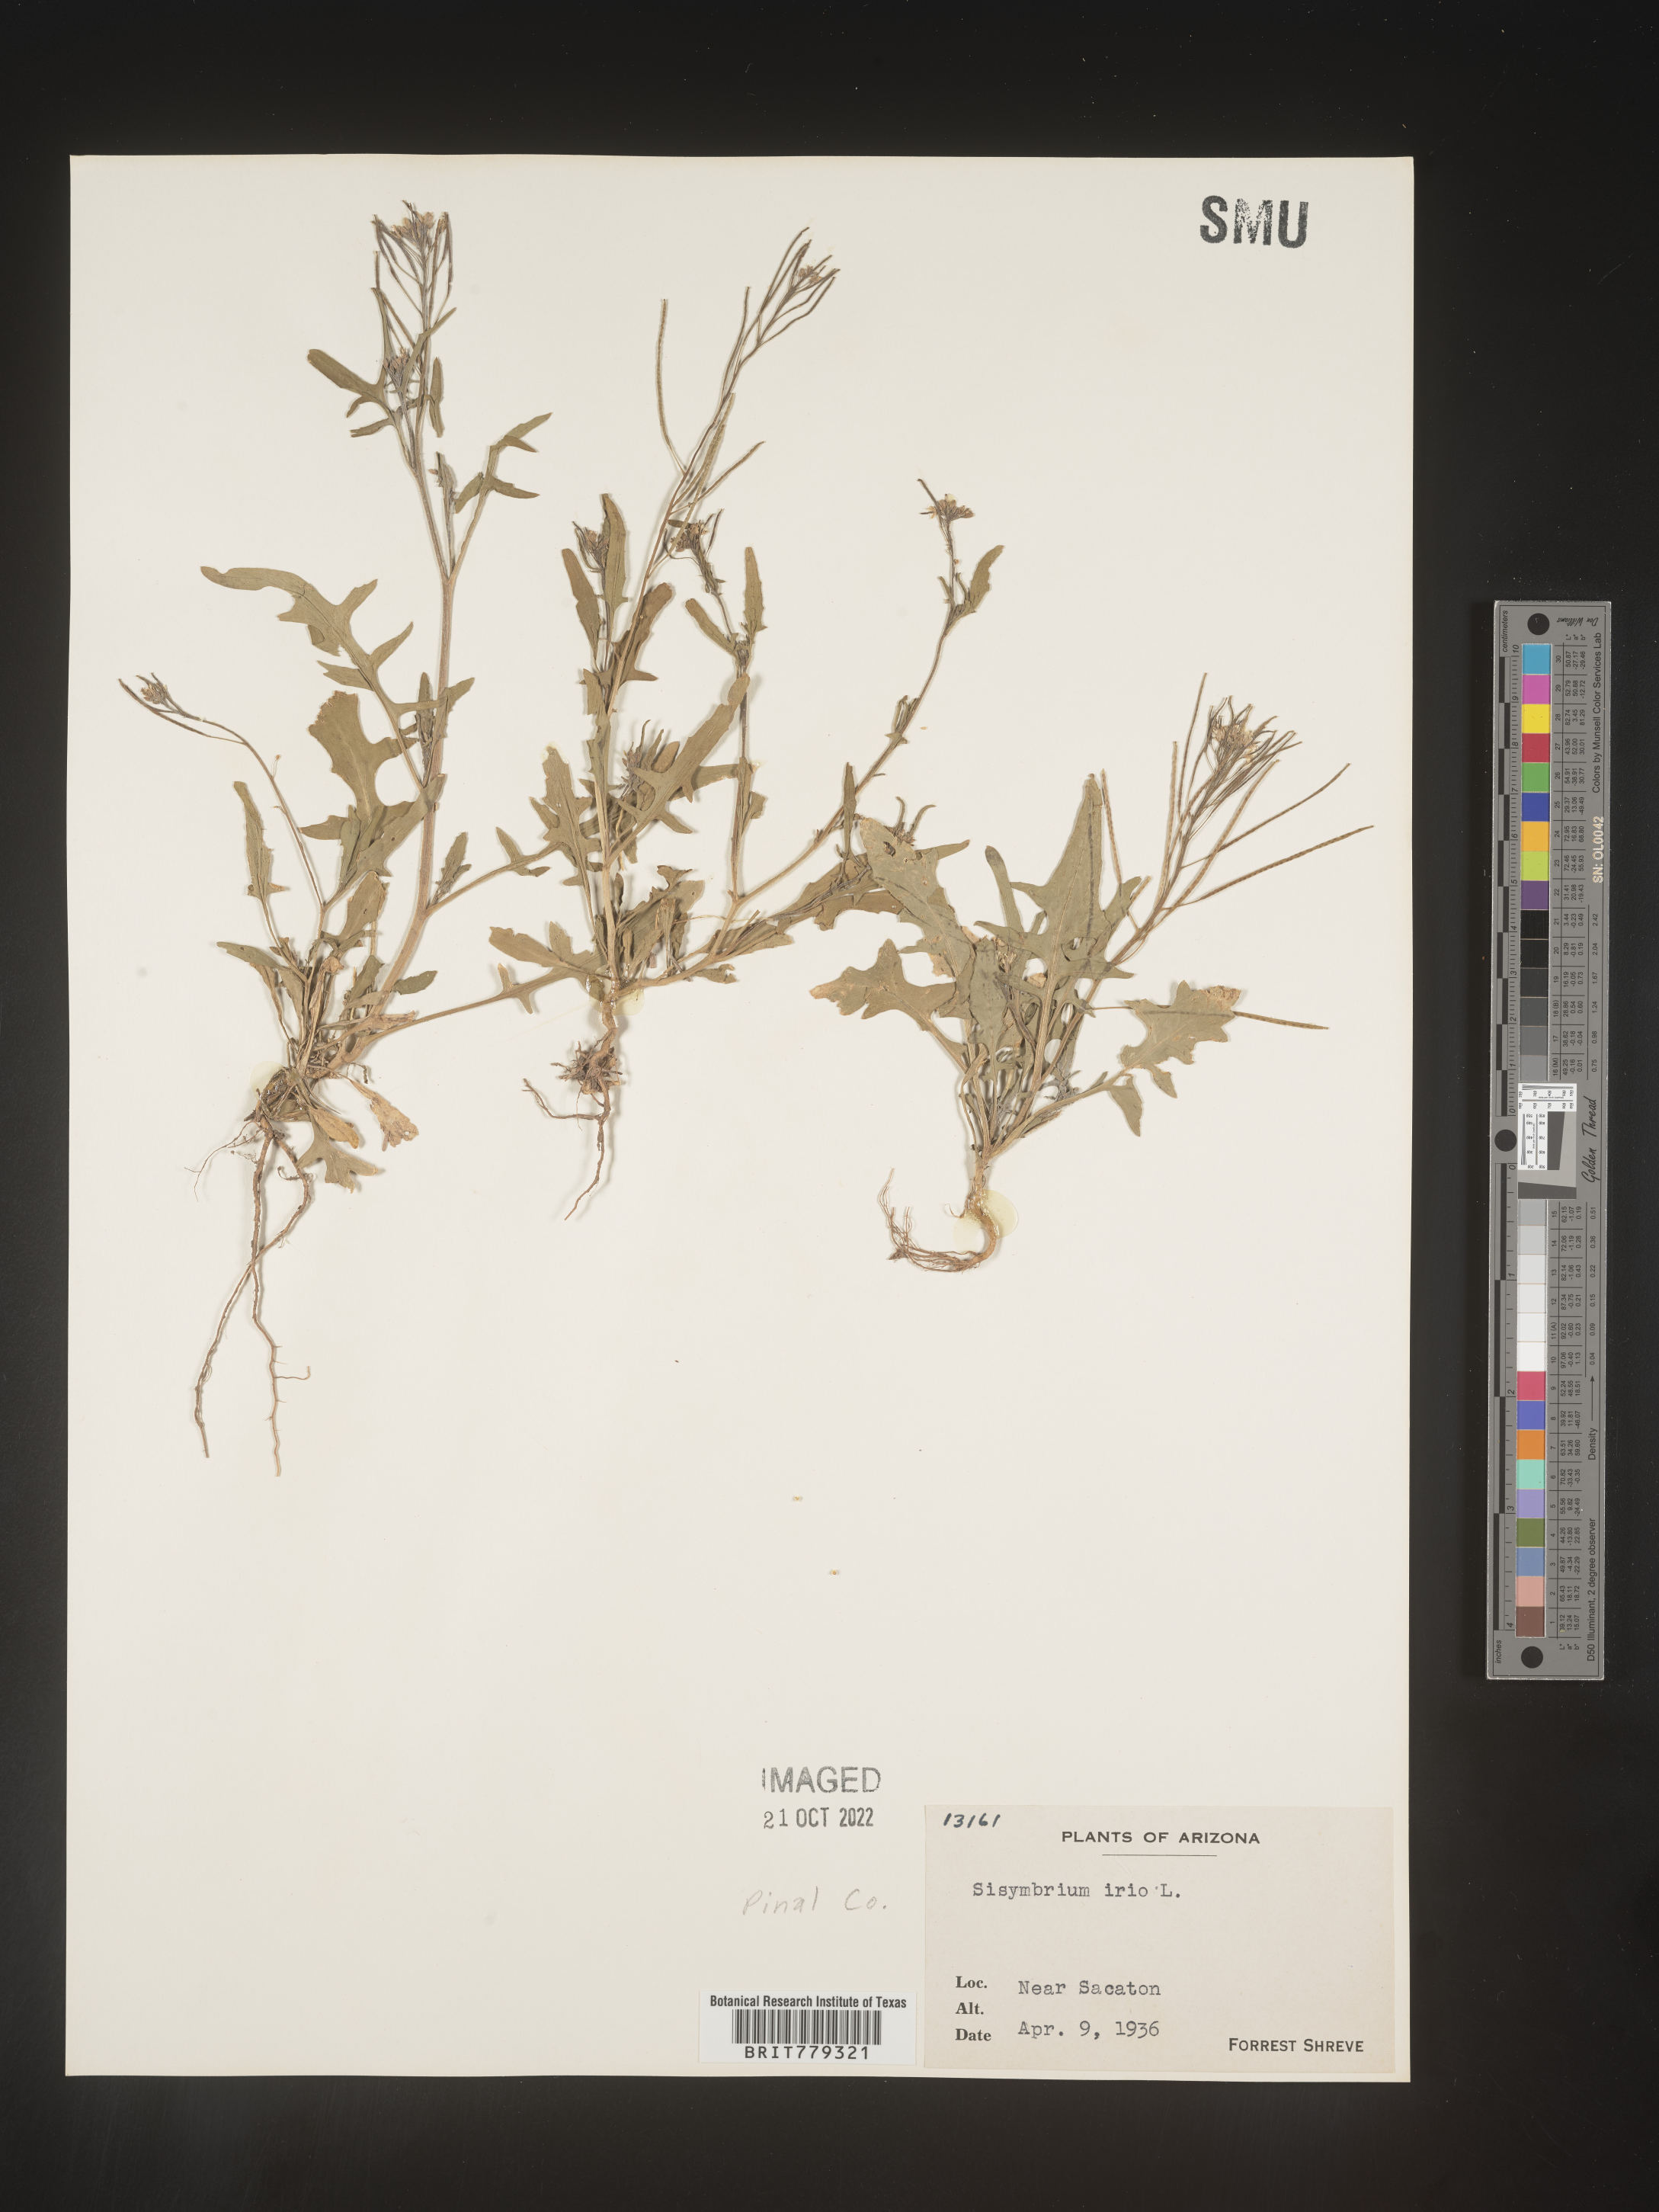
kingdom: Plantae
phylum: Tracheophyta
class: Magnoliopsida
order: Brassicales
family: Brassicaceae
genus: Sisymbrium
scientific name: Sisymbrium
